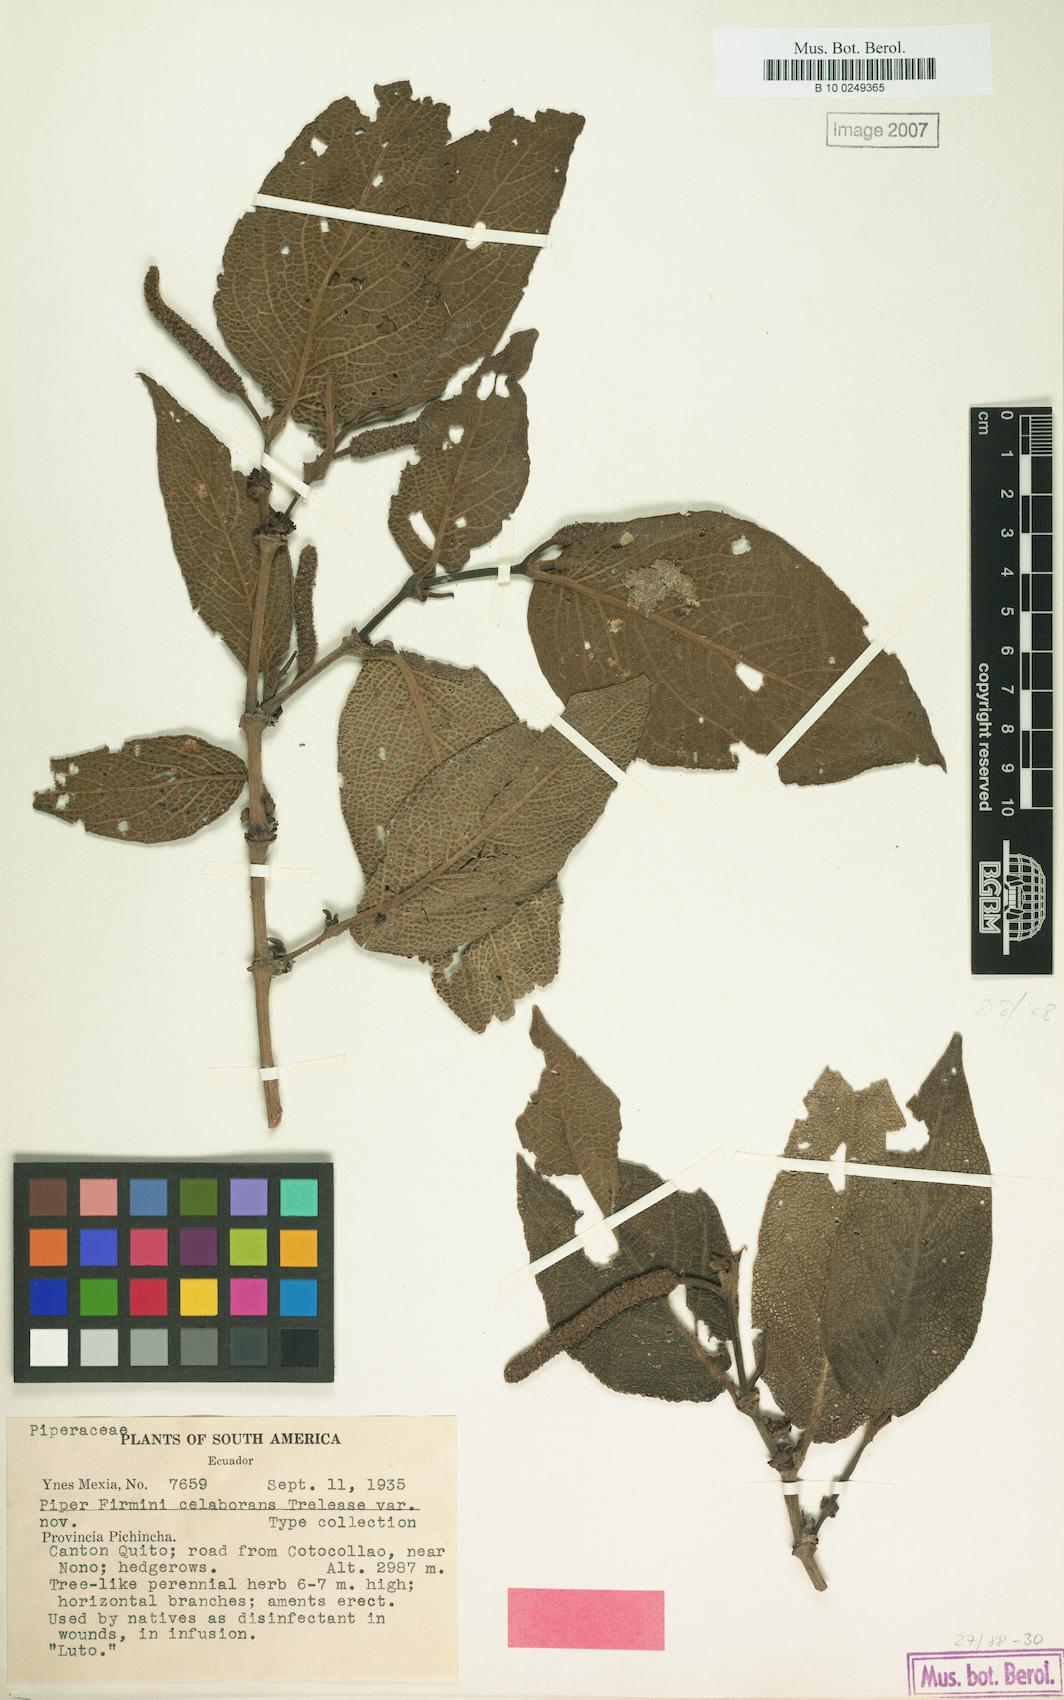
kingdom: Plantae
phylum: Tracheophyta
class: Magnoliopsida
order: Piperales
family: Piperaceae
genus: Piper
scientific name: Piper
